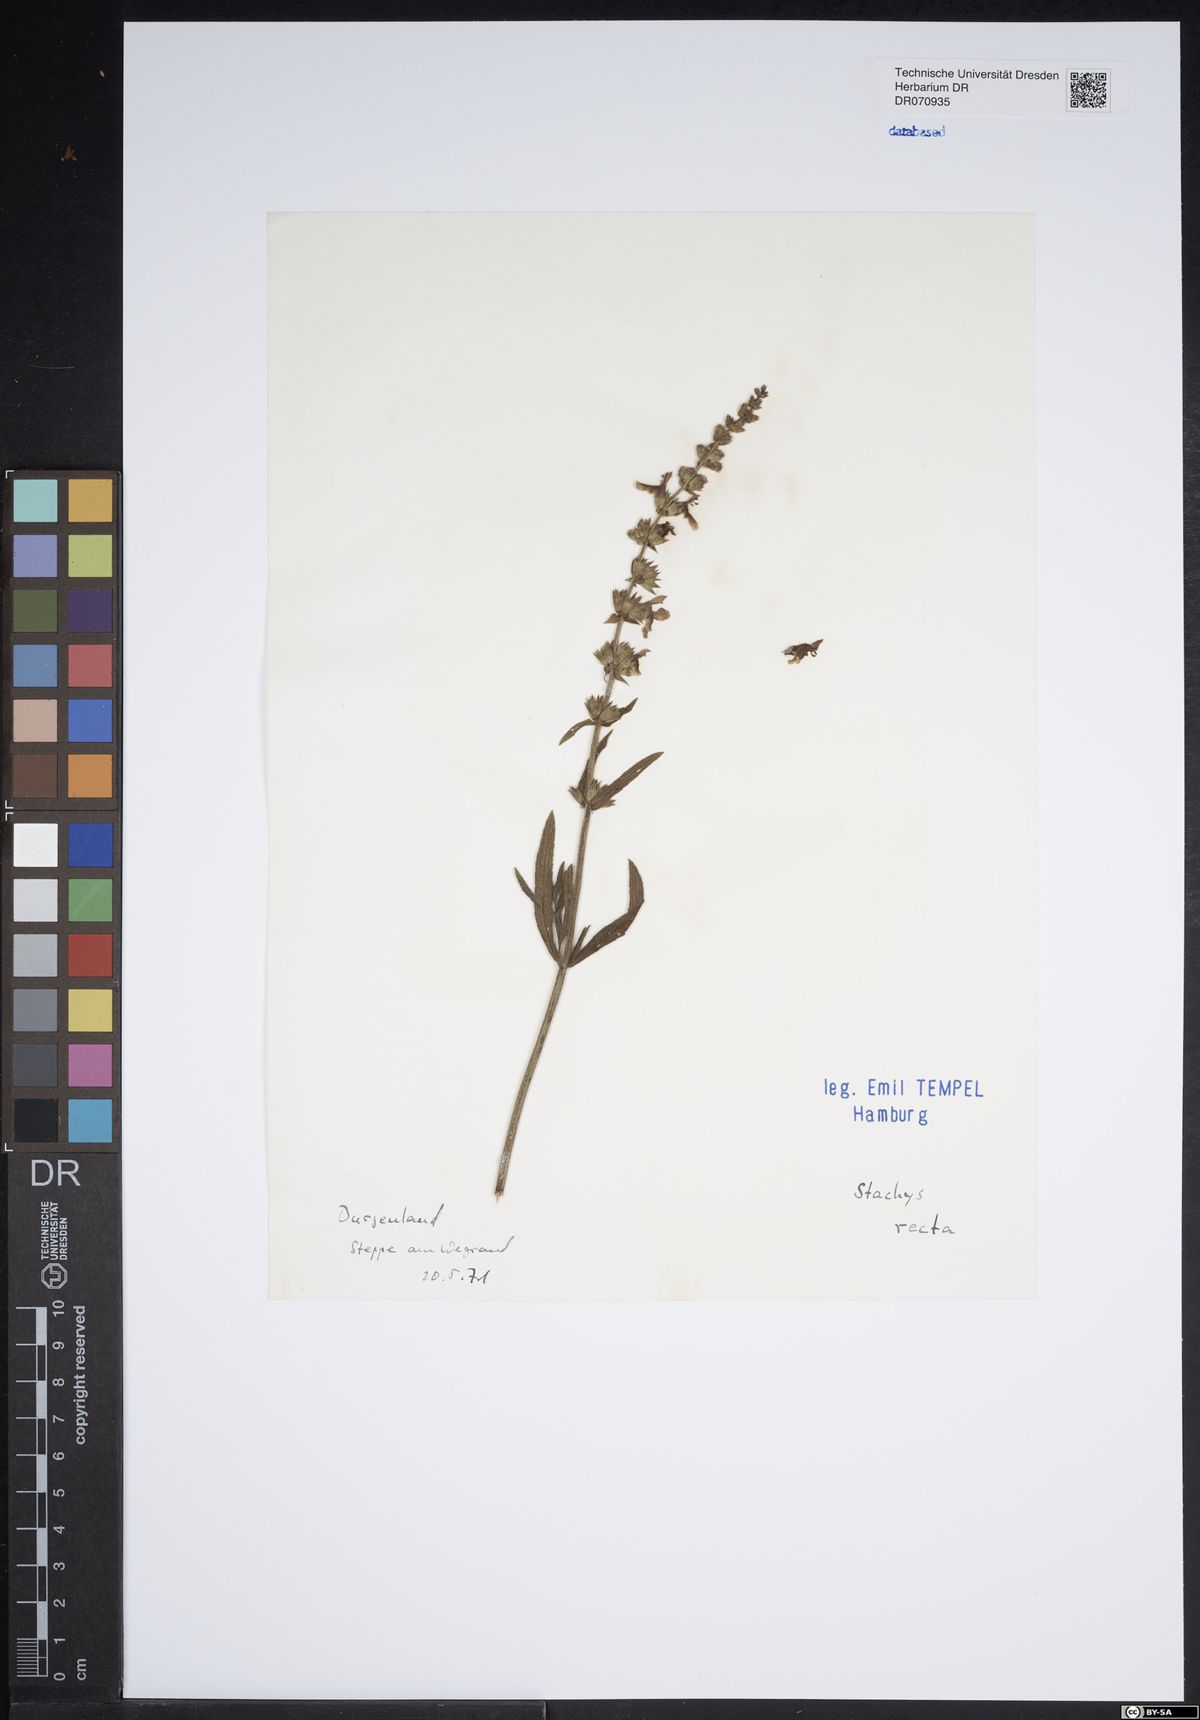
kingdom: Plantae
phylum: Tracheophyta
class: Magnoliopsida
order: Lamiales
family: Lamiaceae
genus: Stachys
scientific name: Stachys recta
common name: Perennial yellow-woundwort
